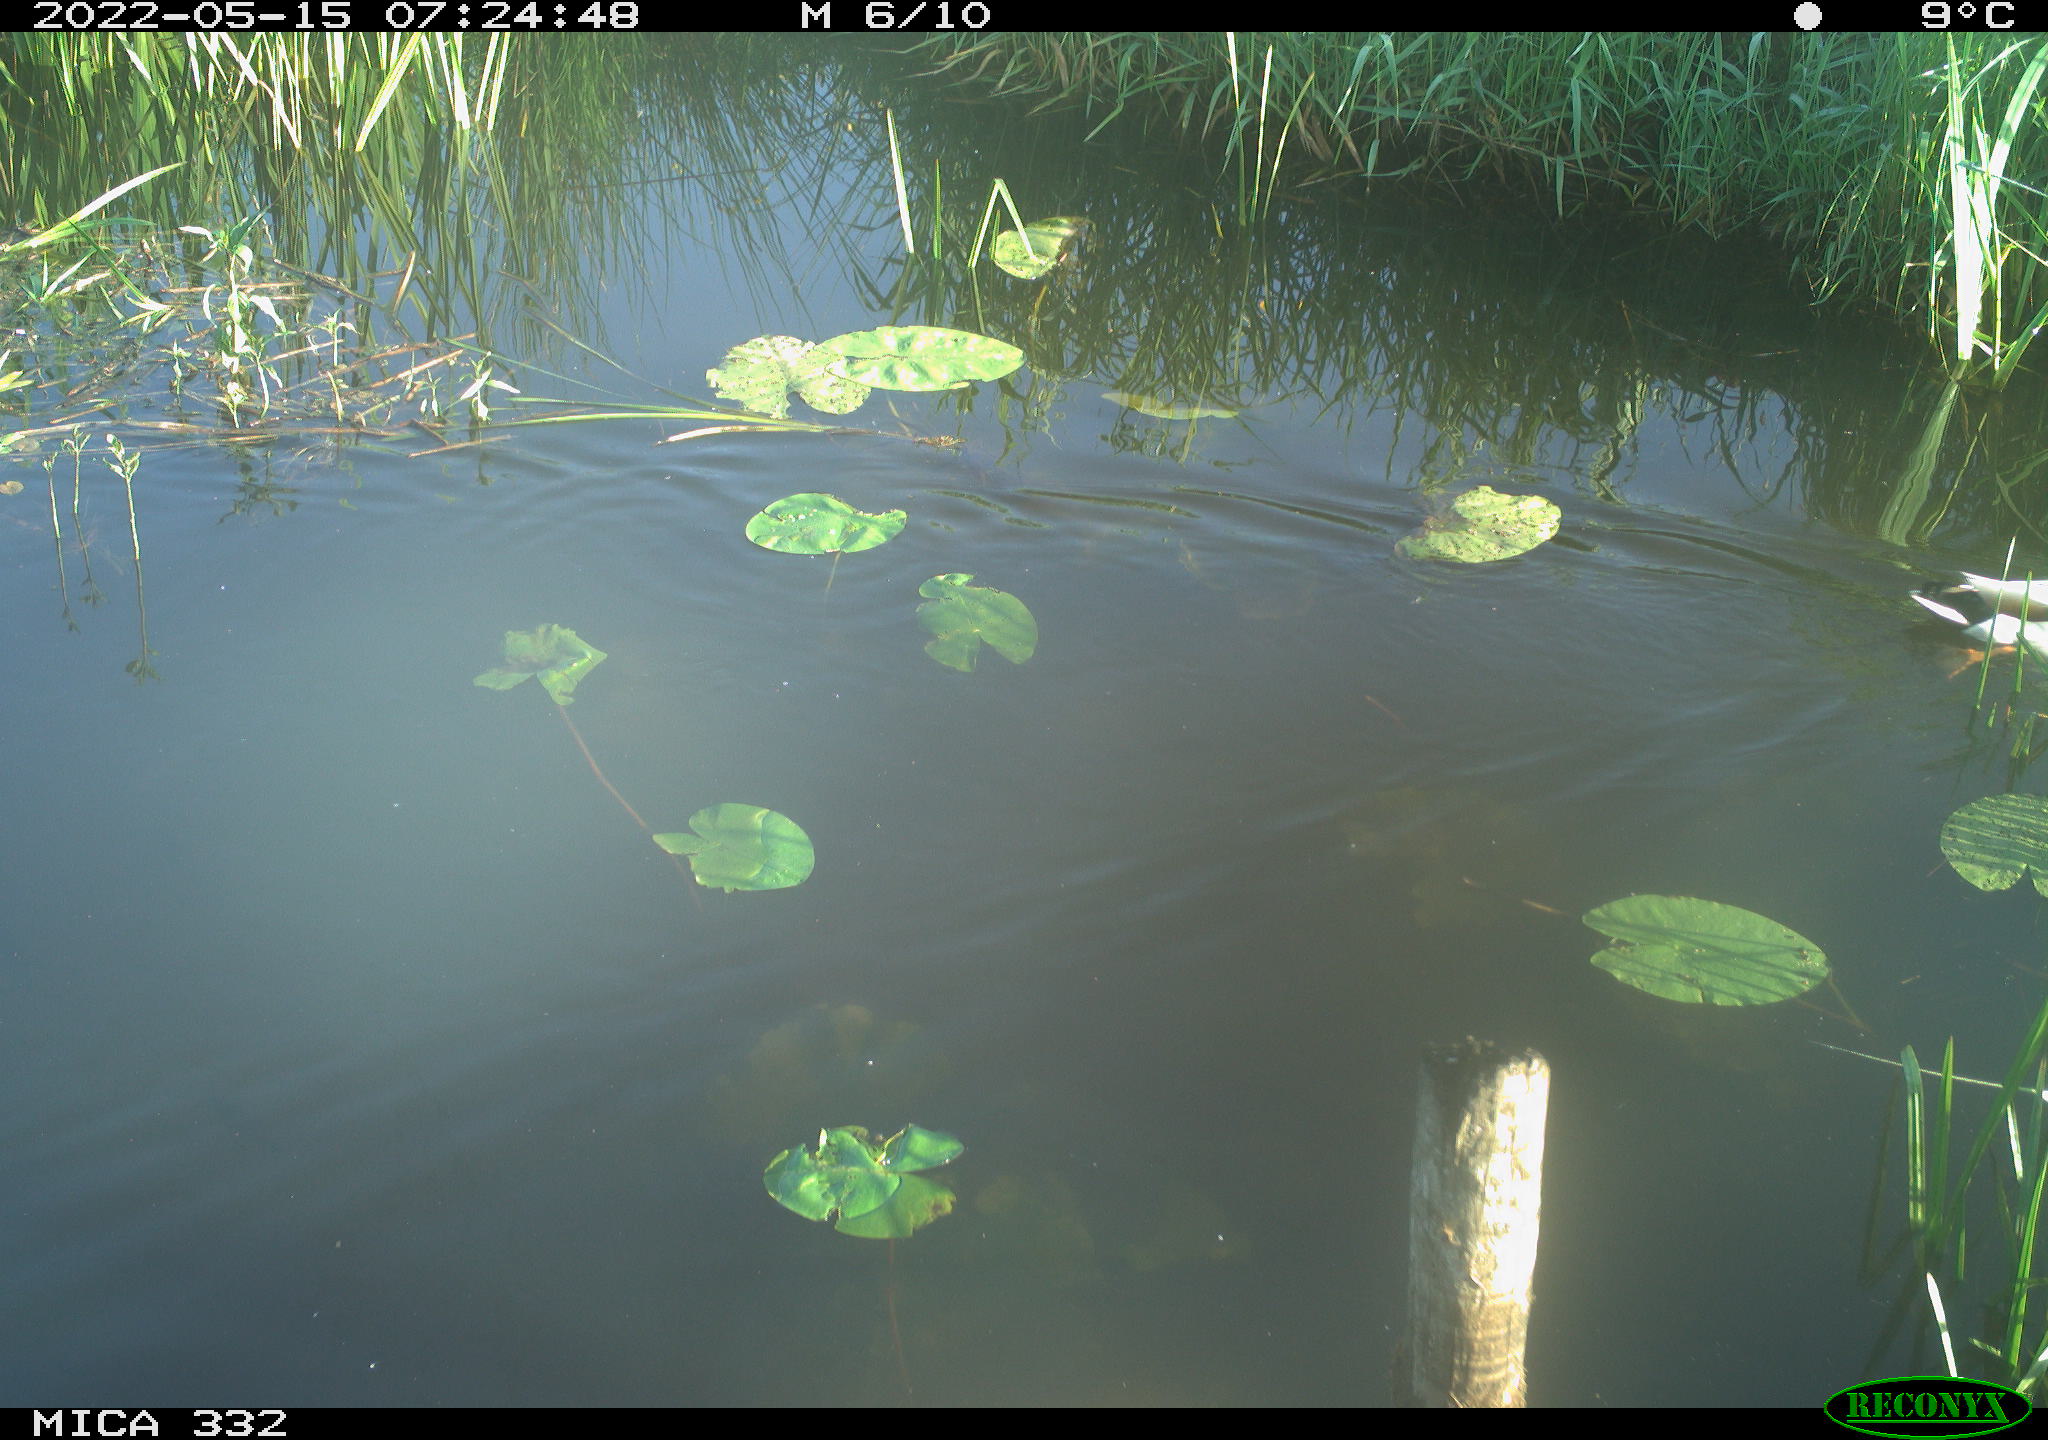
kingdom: Animalia
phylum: Chordata
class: Aves
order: Anseriformes
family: Anatidae
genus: Anas
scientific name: Anas platyrhynchos
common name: Mallard
